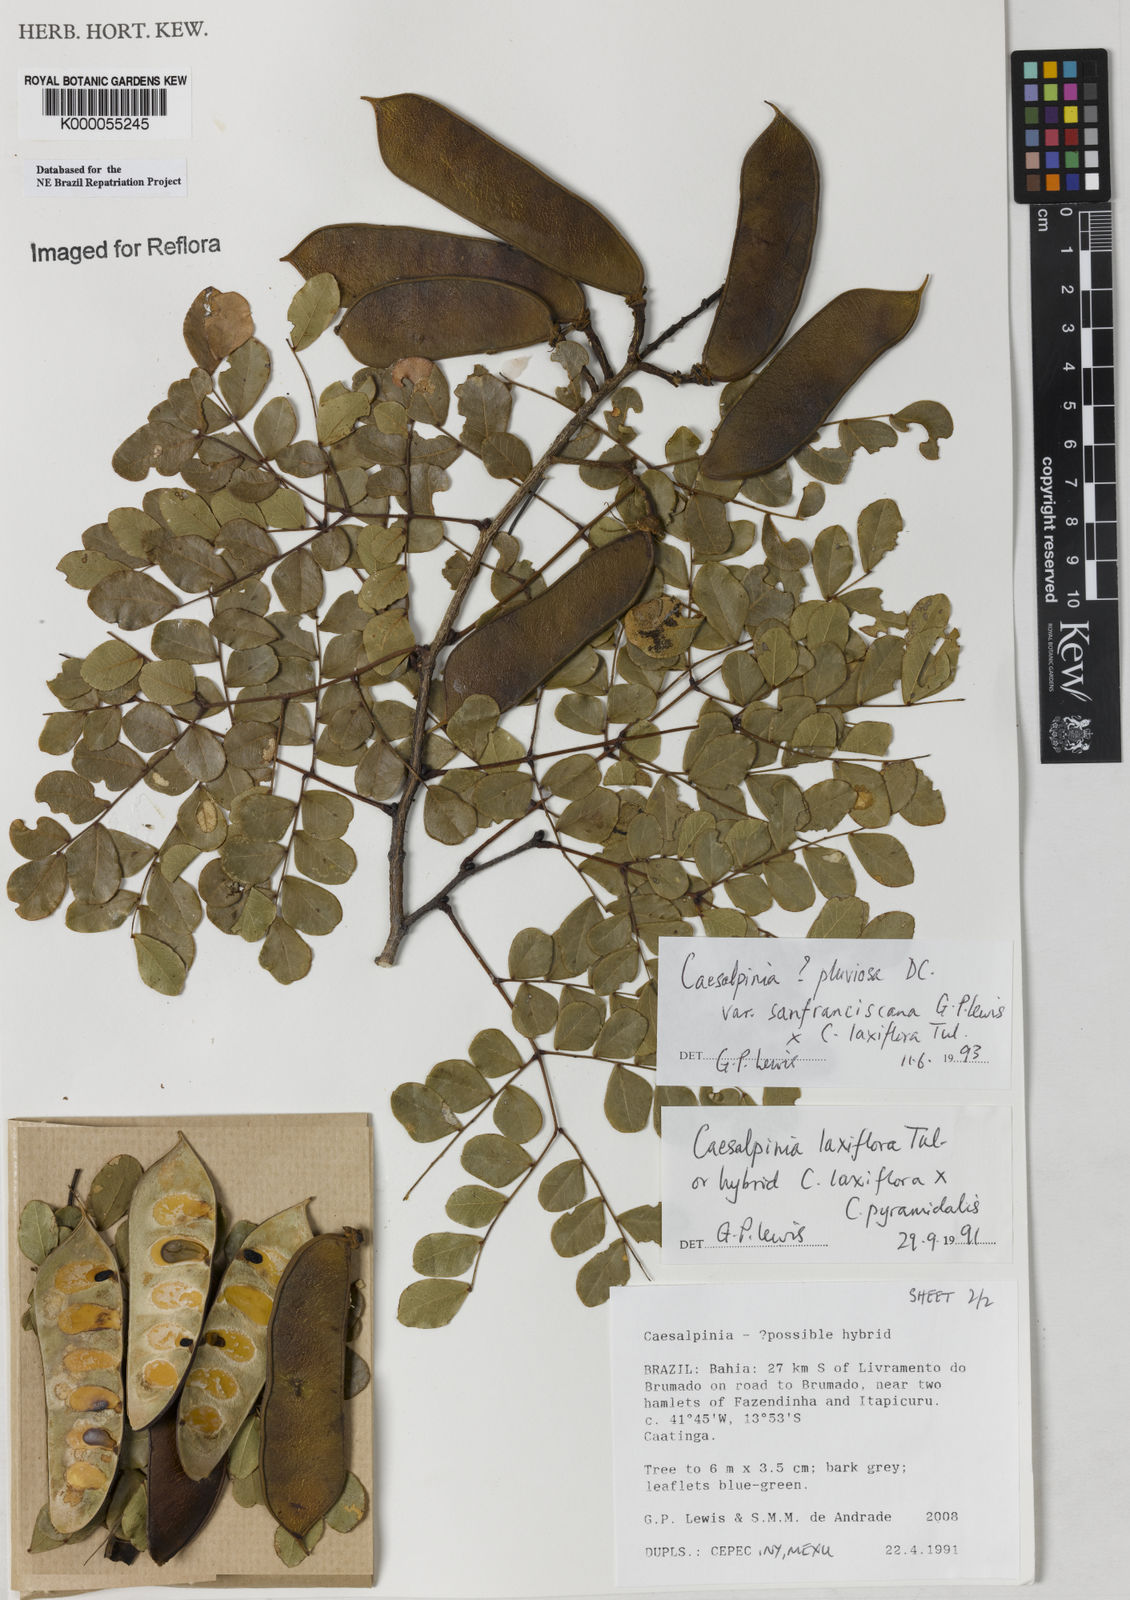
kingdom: Plantae
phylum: Tracheophyta
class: Magnoliopsida
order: Fabales
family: Fabaceae
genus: Cenostigma
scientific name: Cenostigma pluviosum
